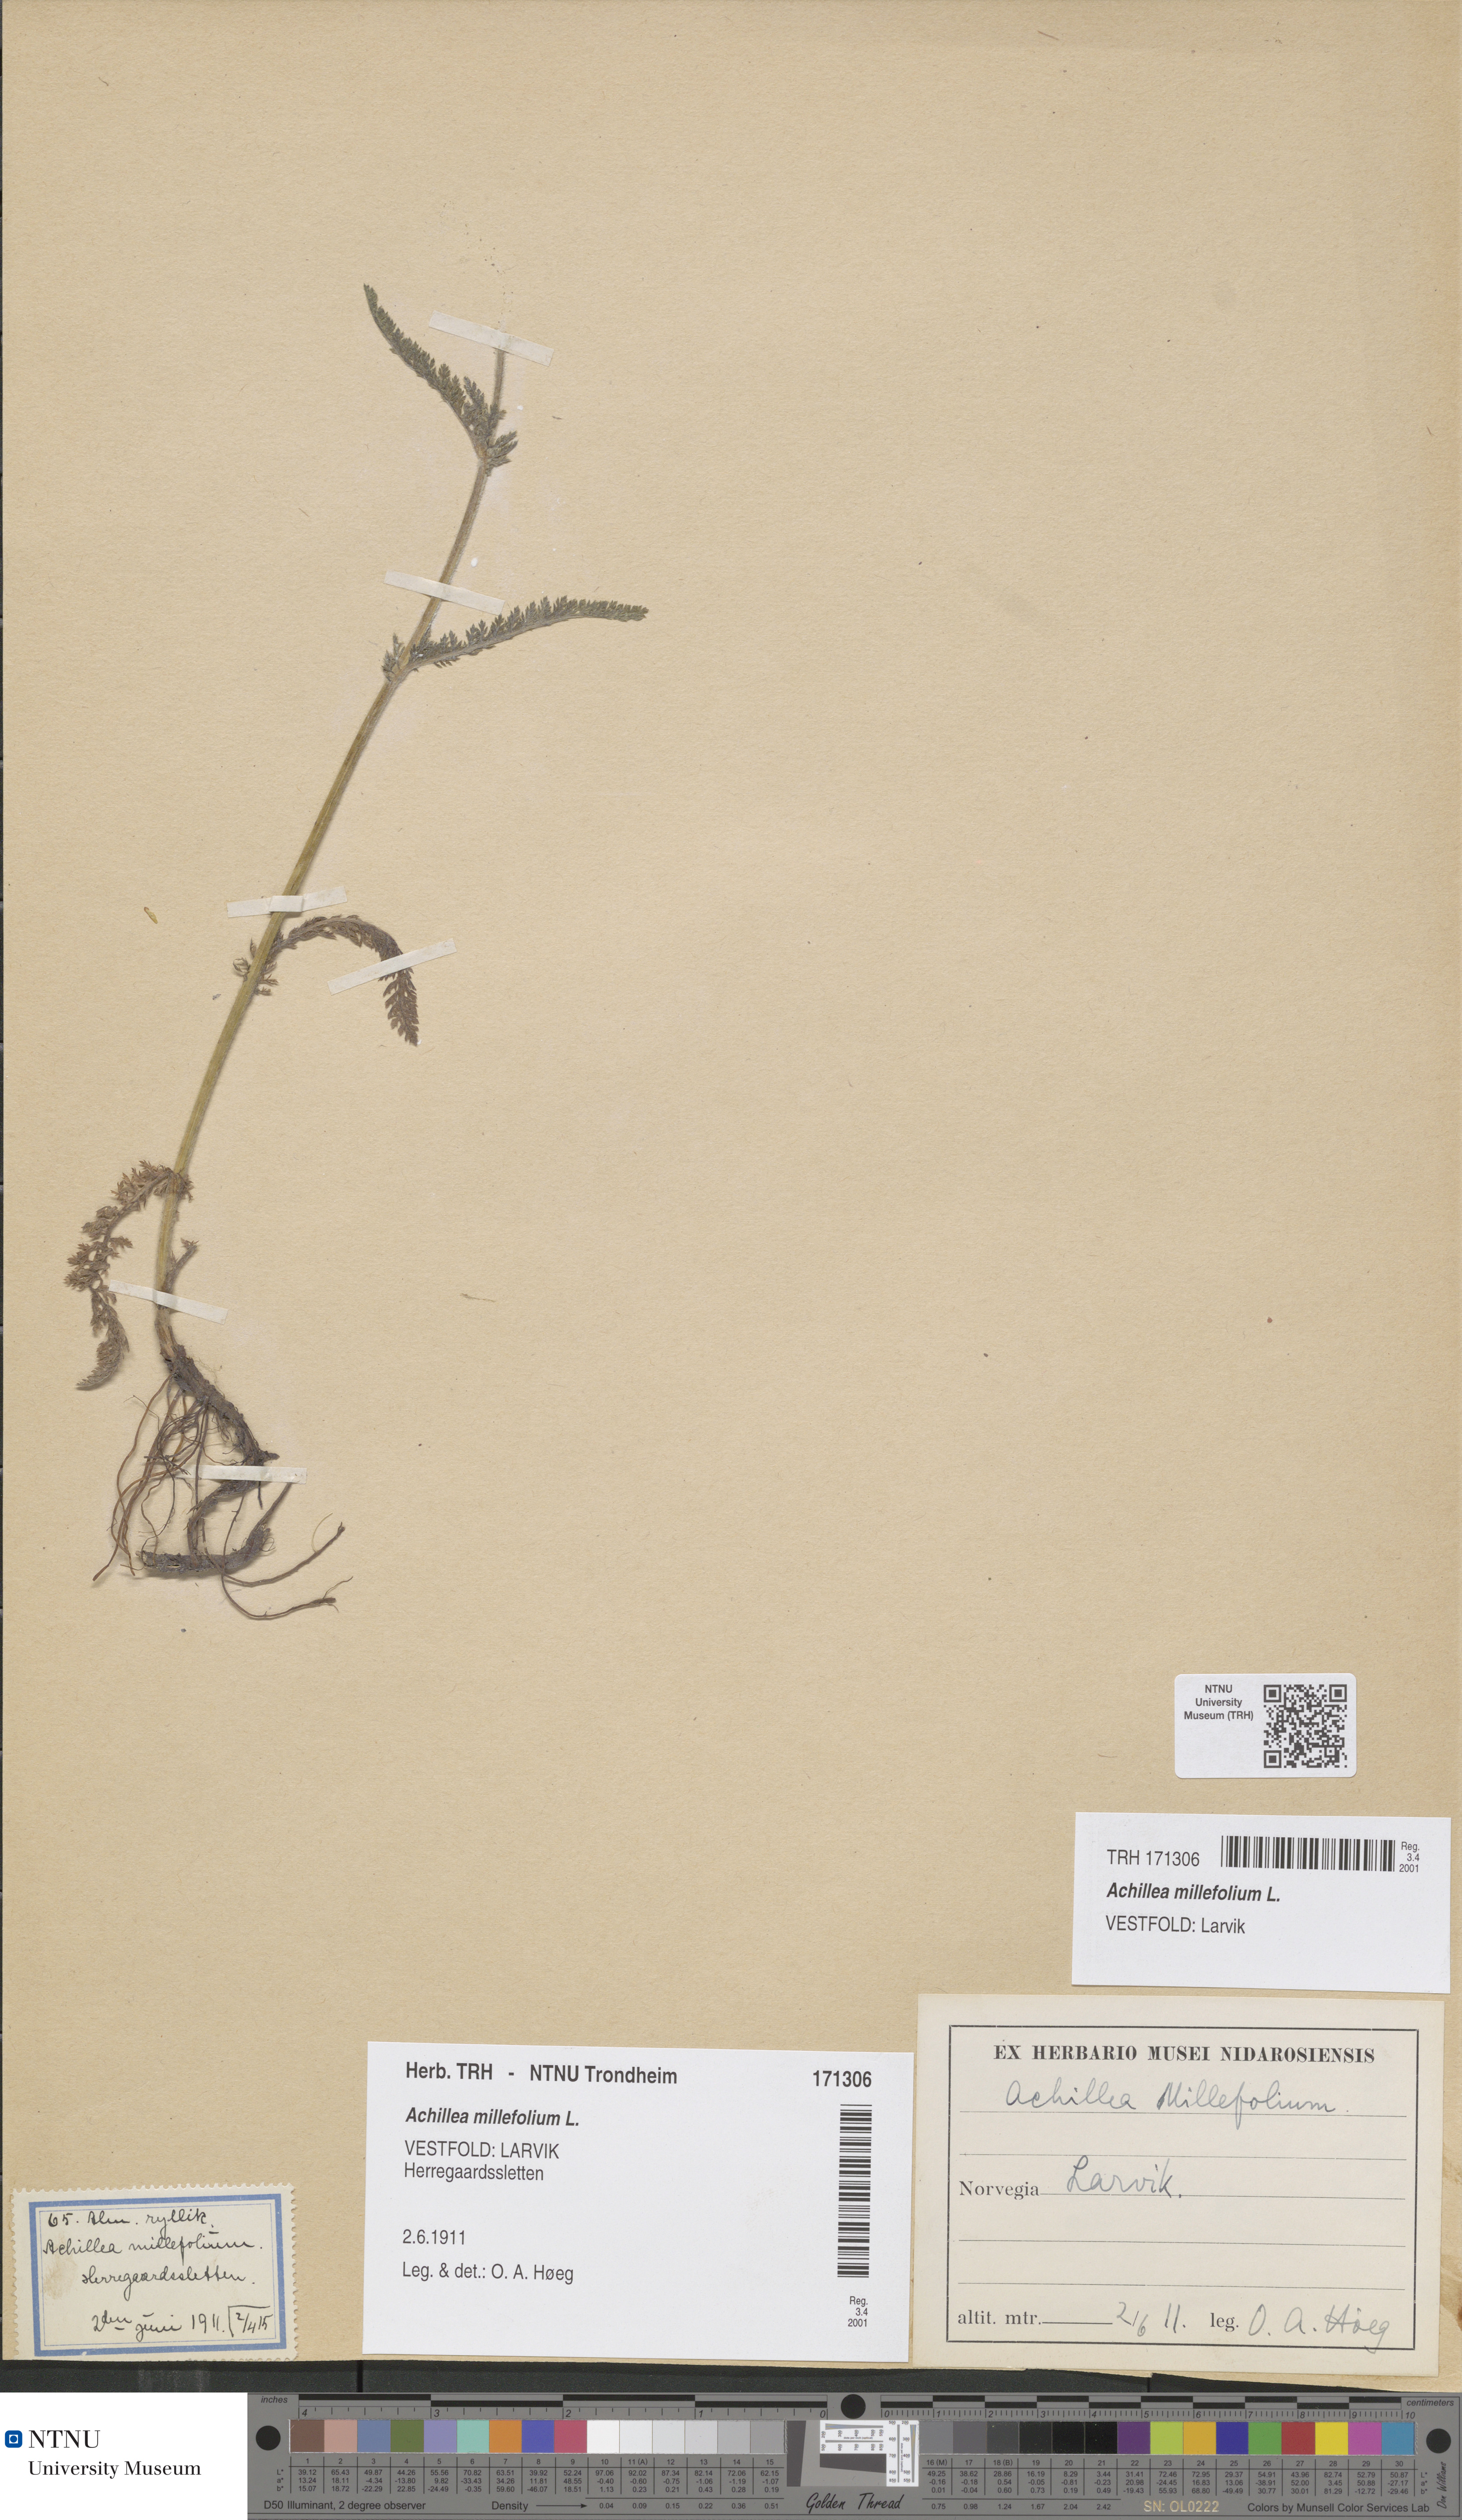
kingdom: Plantae
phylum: Tracheophyta
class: Magnoliopsida
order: Asterales
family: Asteraceae
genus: Achillea
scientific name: Achillea millefolium
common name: Yarrow
